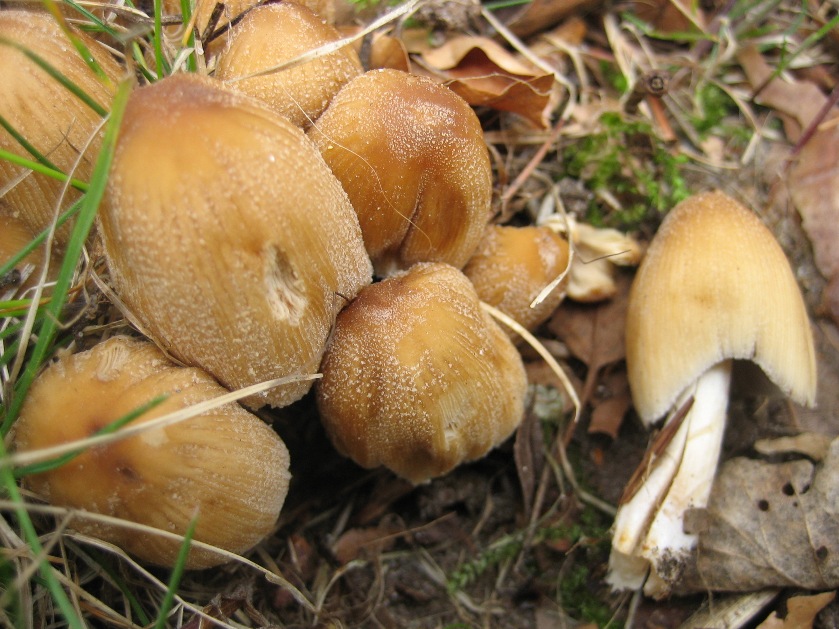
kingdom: Fungi
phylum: Basidiomycota
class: Agaricomycetes
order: Agaricales
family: Psathyrellaceae
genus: Coprinellus
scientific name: Coprinellus micaceus
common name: glimmer-blækhat
